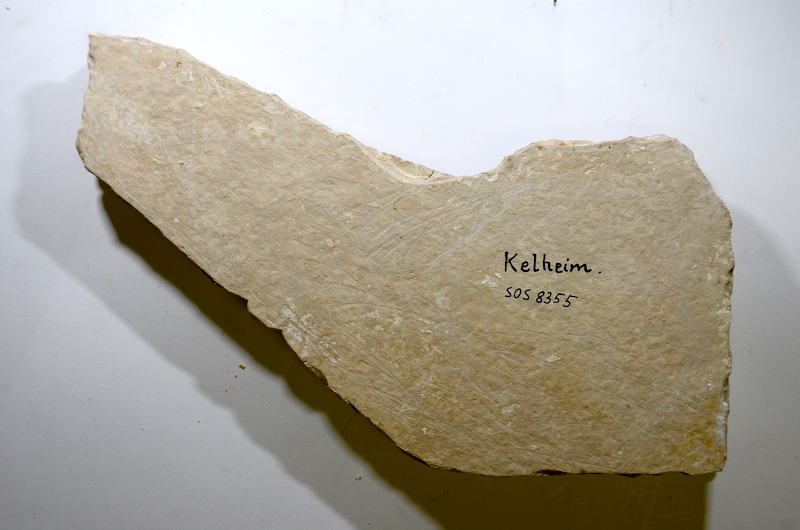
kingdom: Animalia
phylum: Chordata
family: Ophiopsidae
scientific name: Ophiopsidae
